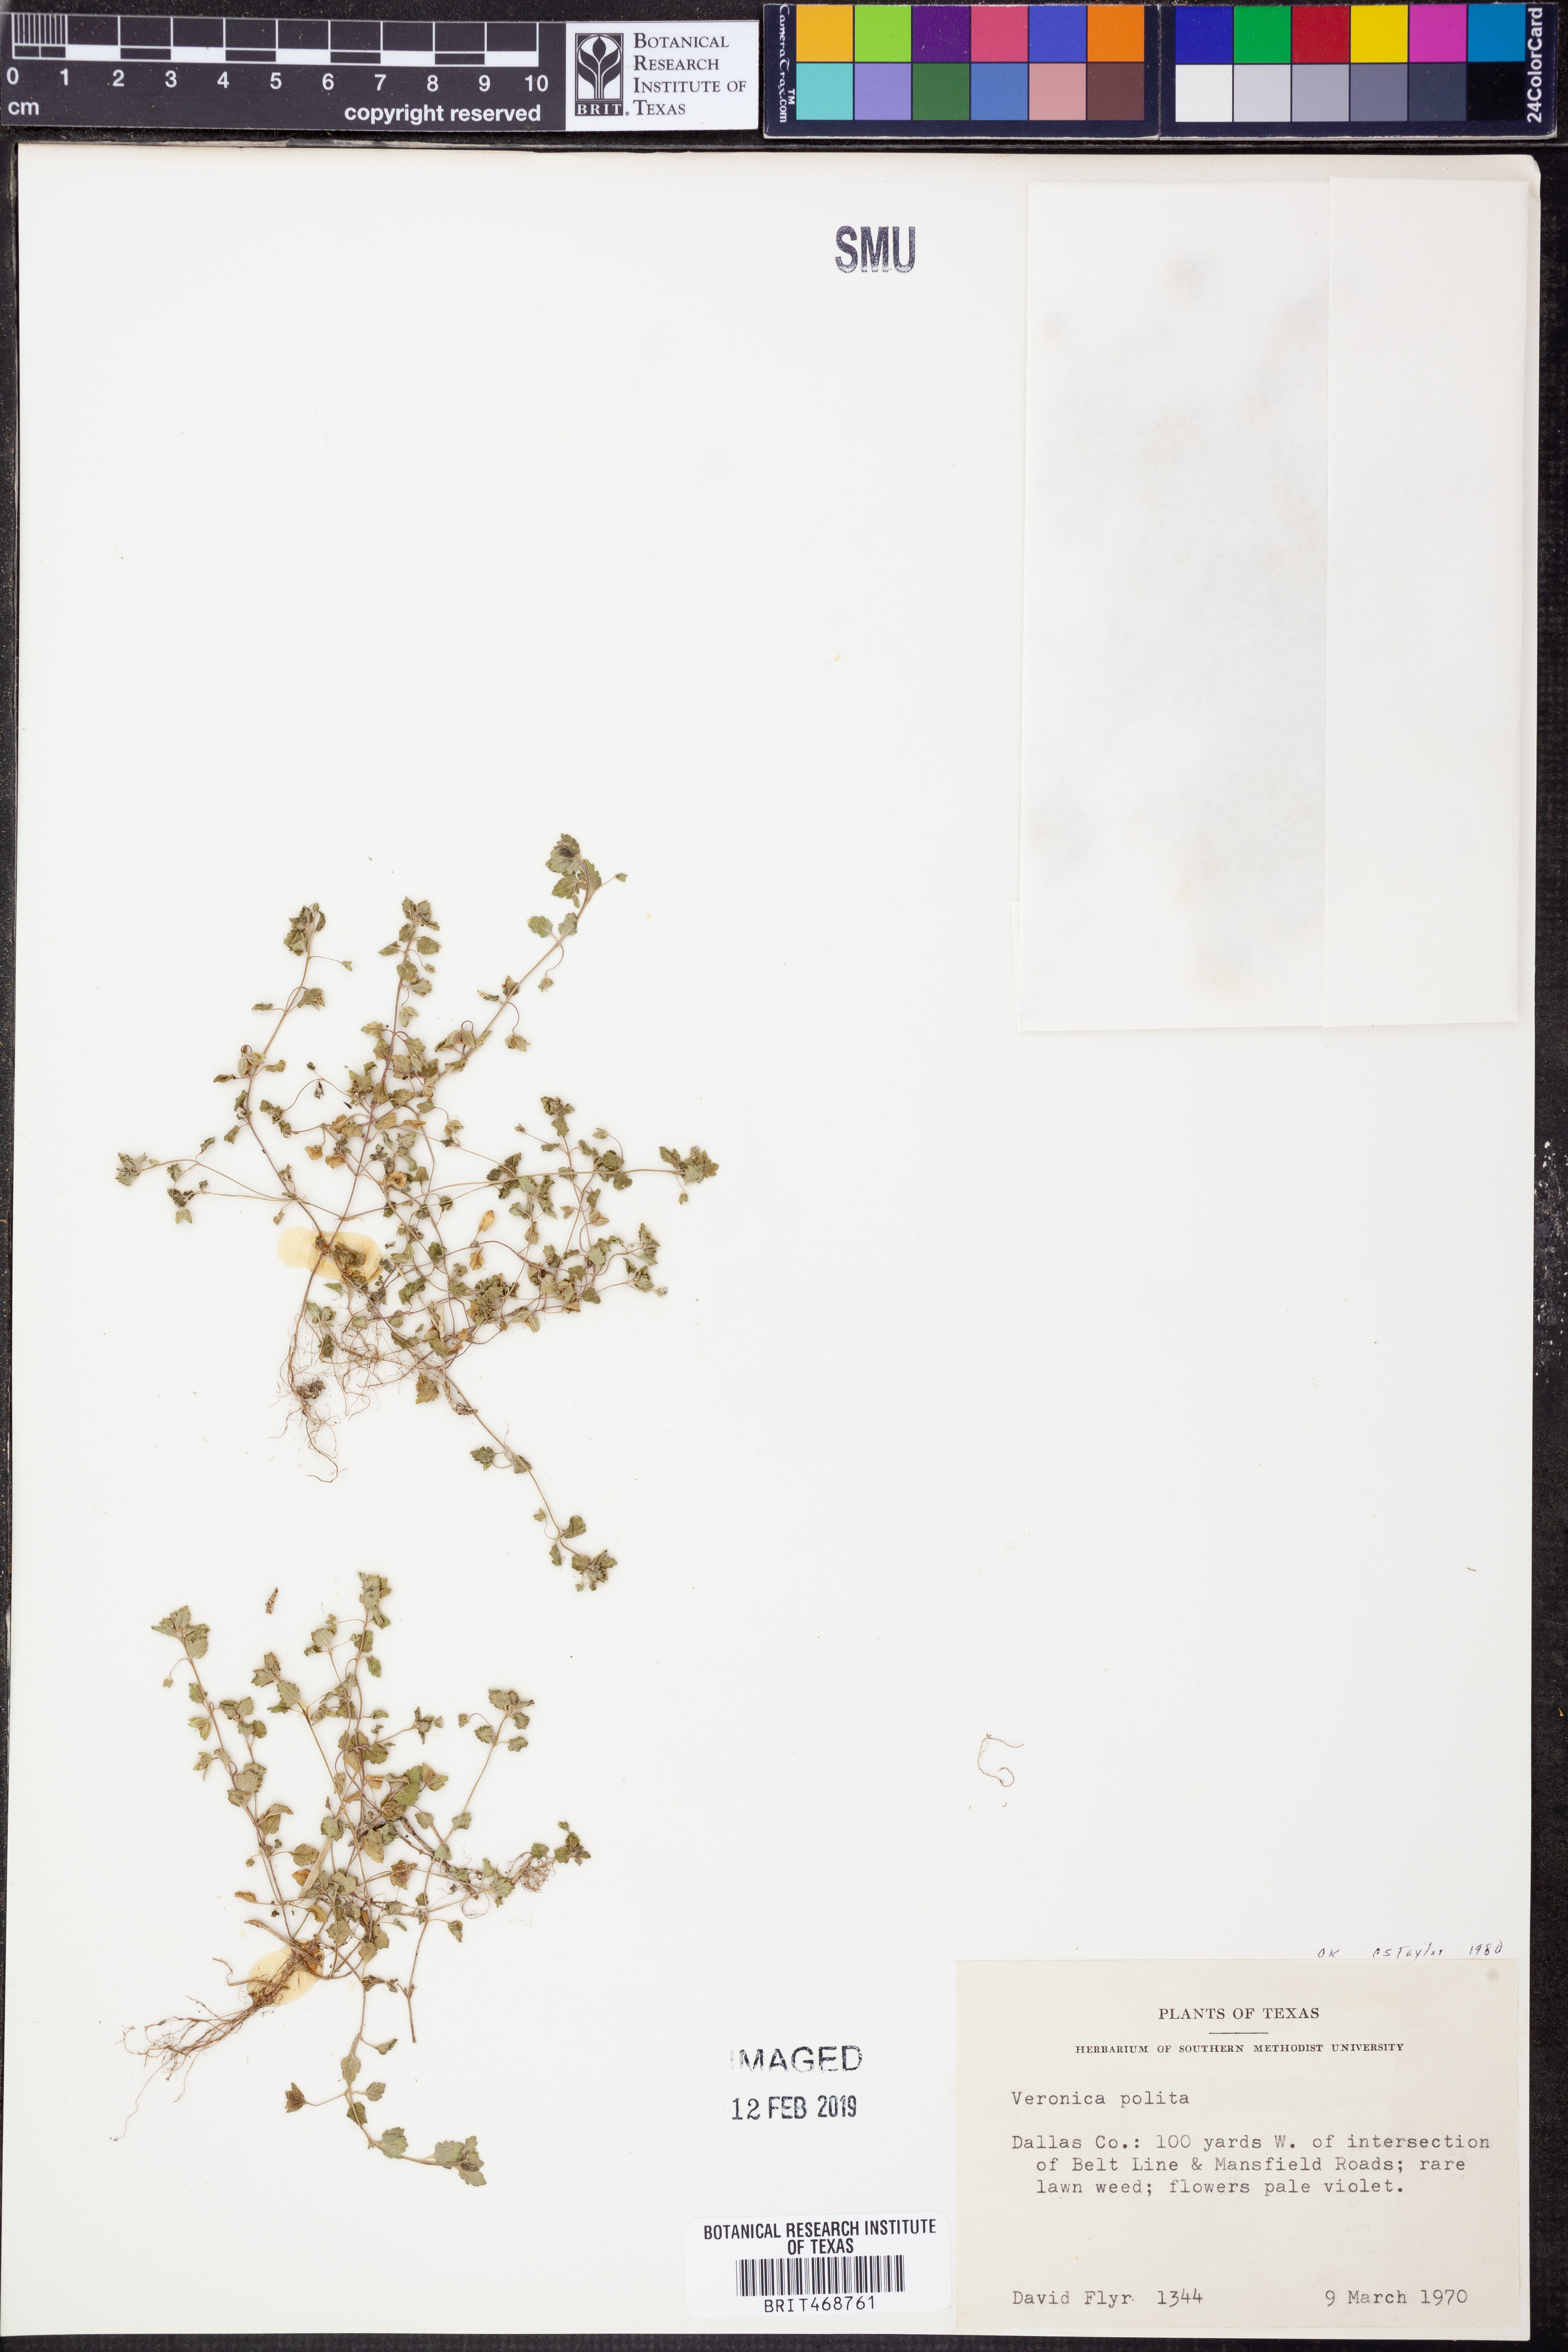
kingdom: Plantae
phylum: Tracheophyta
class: Magnoliopsida
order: Lamiales
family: Plantaginaceae
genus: Veronica
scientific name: Veronica polita
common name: Grey field-speedwell
